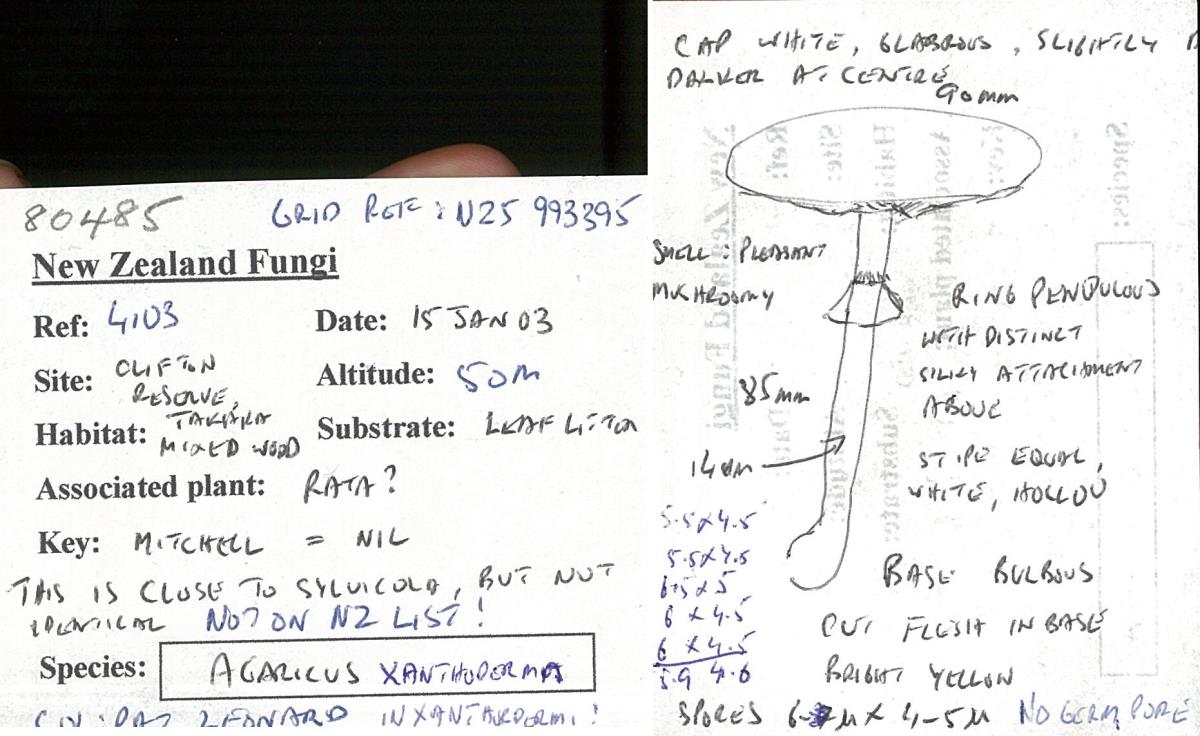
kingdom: Fungi
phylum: Basidiomycota
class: Agaricomycetes
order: Agaricales
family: Agaricaceae
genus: Agaricus
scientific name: Agaricus
